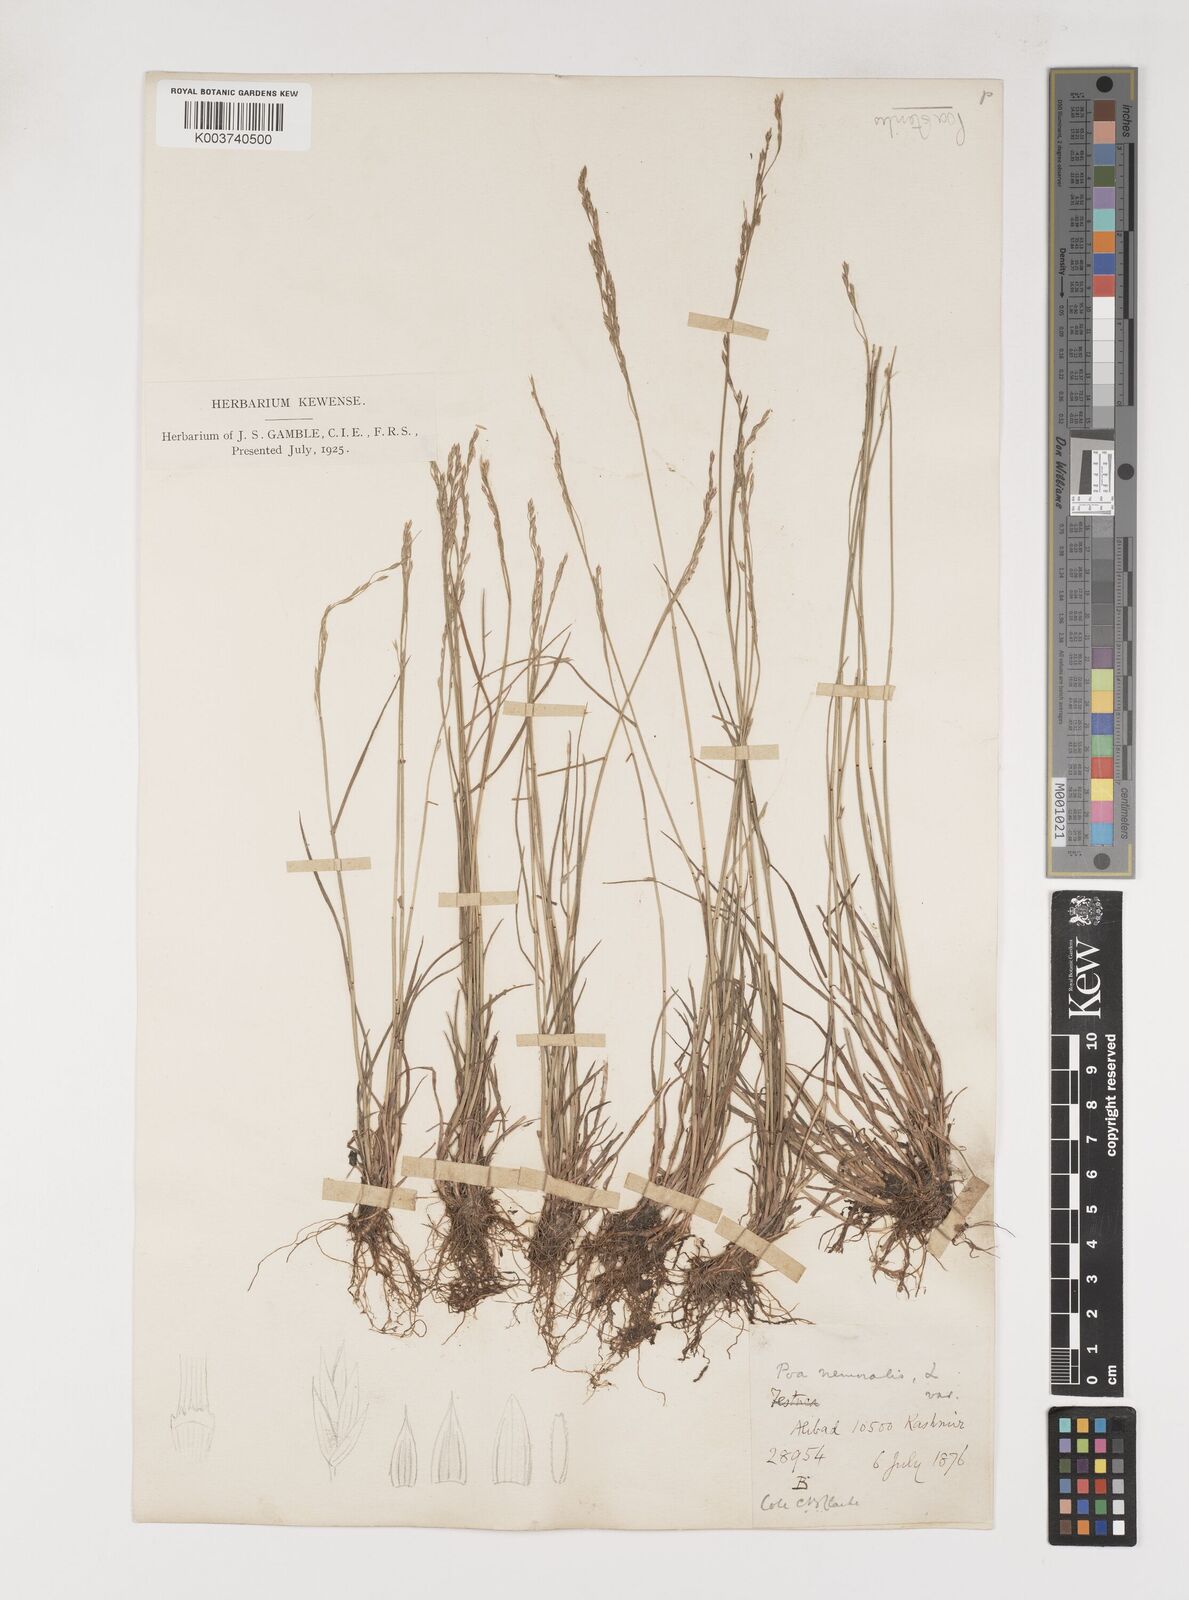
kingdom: Plantae
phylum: Tracheophyta
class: Liliopsida
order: Poales
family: Poaceae
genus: Poa
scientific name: Poa sterilis
